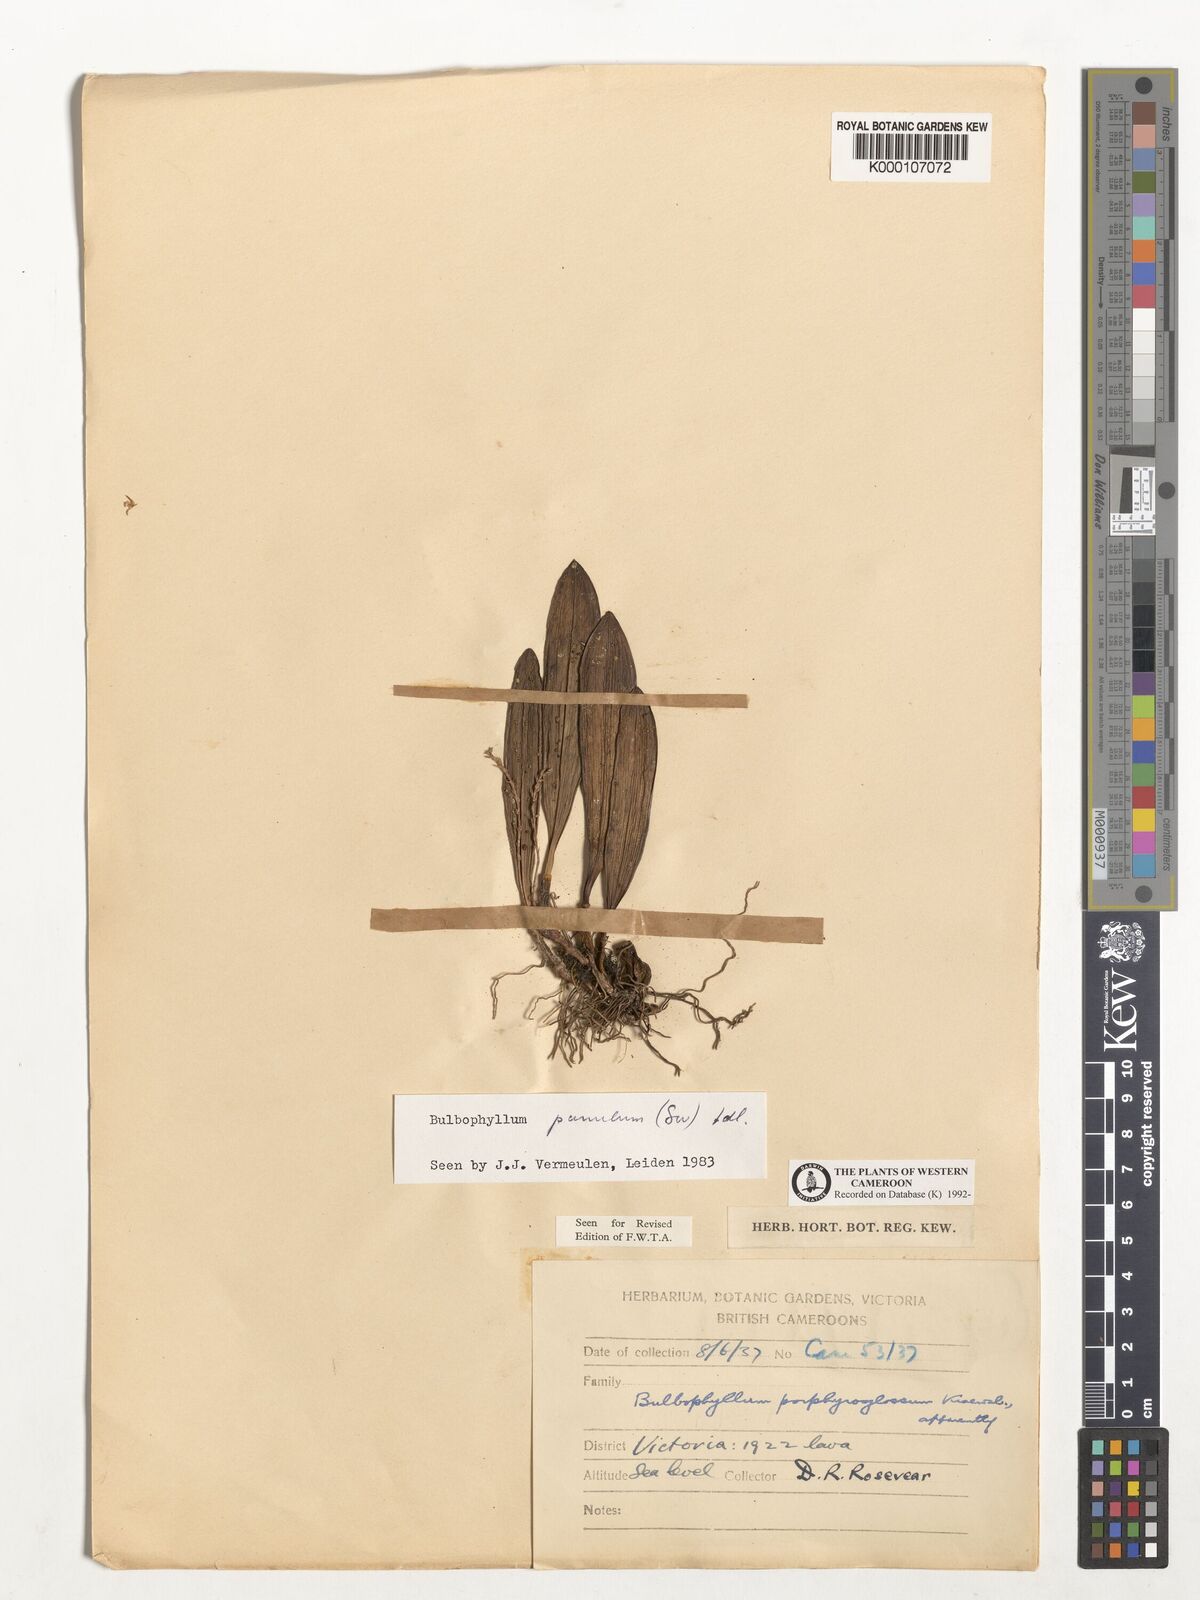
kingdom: Plantae
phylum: Tracheophyta
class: Liliopsida
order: Asparagales
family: Orchidaceae
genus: Bulbophyllum
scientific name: Bulbophyllum pumilum
